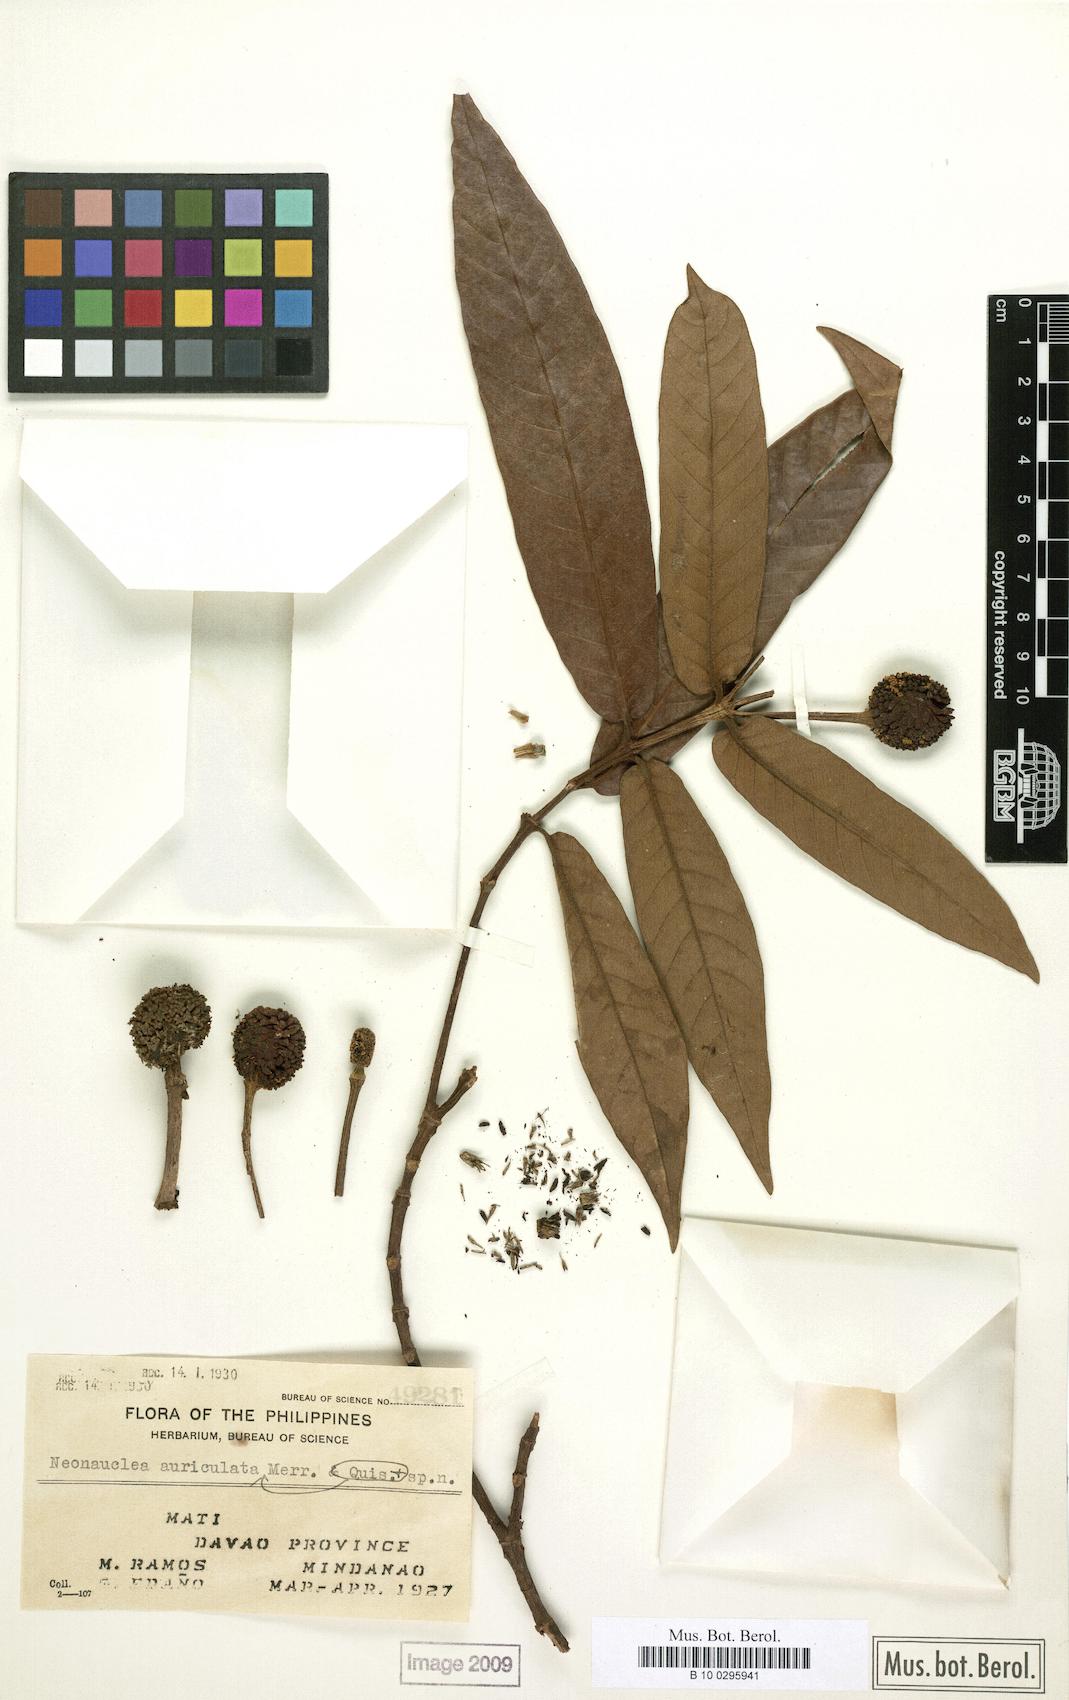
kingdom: Plantae
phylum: Tracheophyta
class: Magnoliopsida
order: Gentianales
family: Rubiaceae
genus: Neonauclea
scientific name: Neonauclea bartlingii
